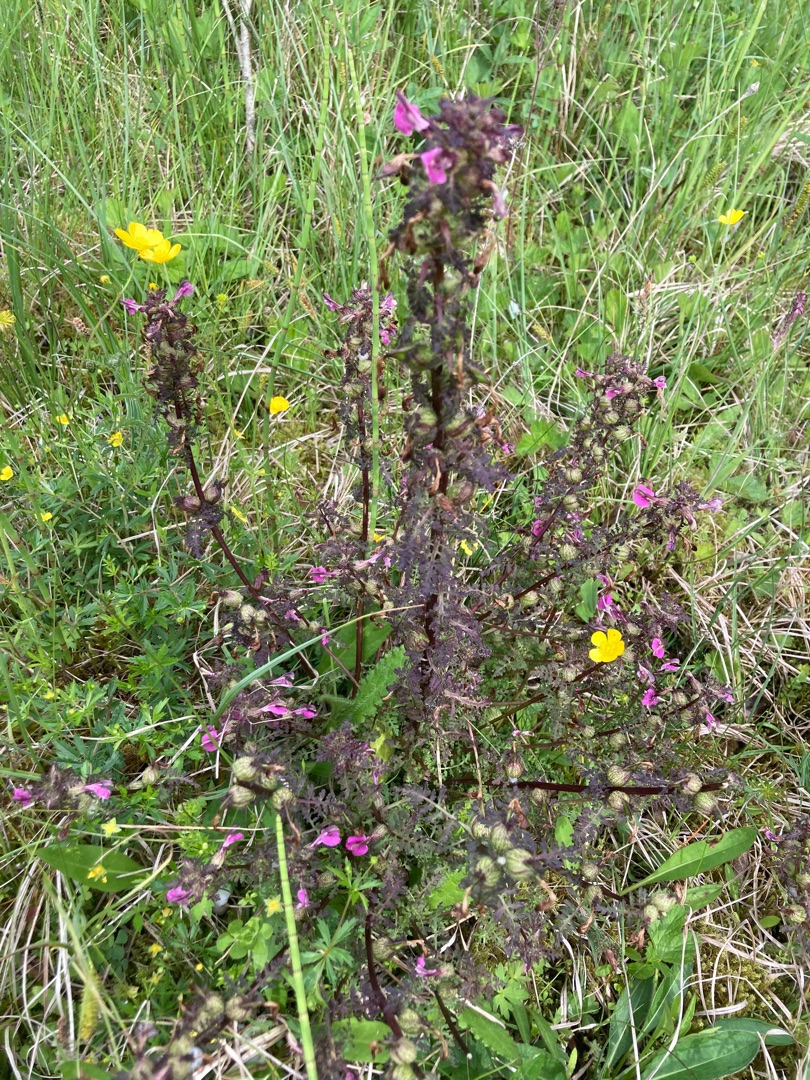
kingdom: Plantae
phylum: Tracheophyta
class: Magnoliopsida
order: Lamiales
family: Orobanchaceae
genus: Pedicularis
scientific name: Pedicularis palustris
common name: Eng-troldurt
